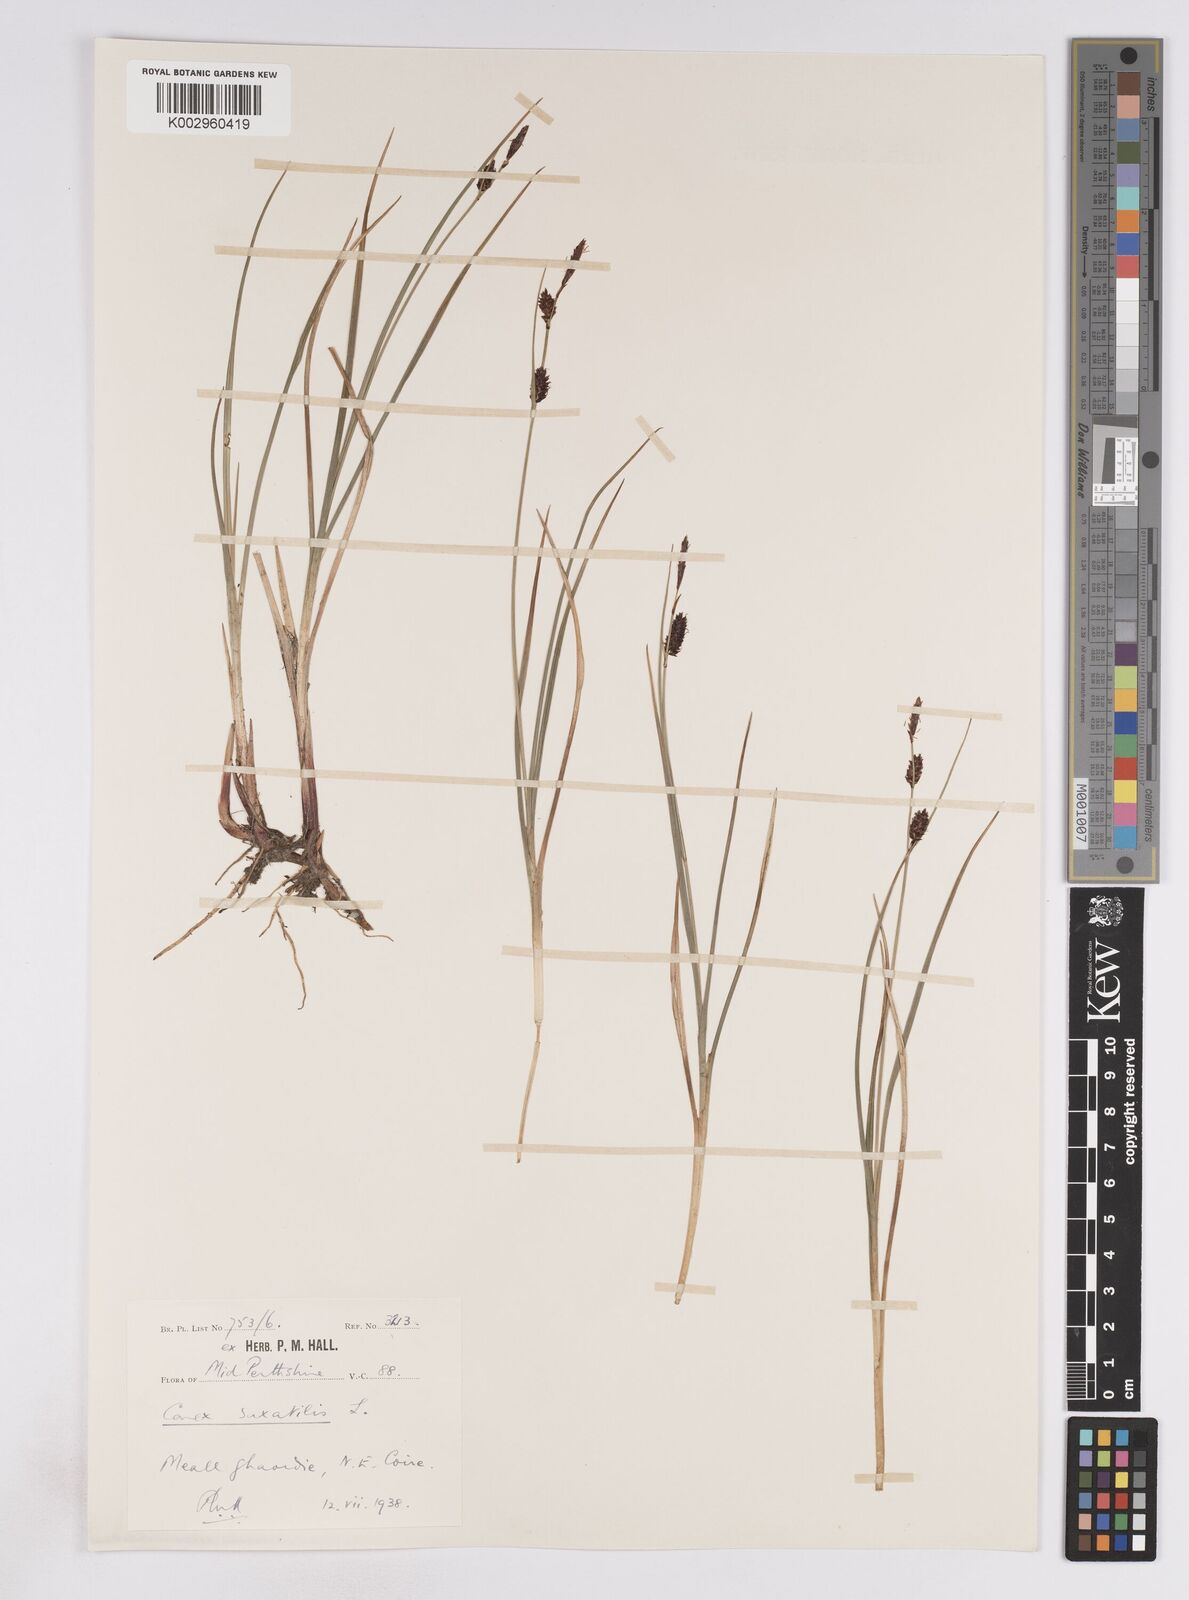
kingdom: Plantae
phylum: Tracheophyta
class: Liliopsida
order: Poales
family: Cyperaceae
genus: Carex
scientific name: Carex saxatilis
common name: Russet sedge
